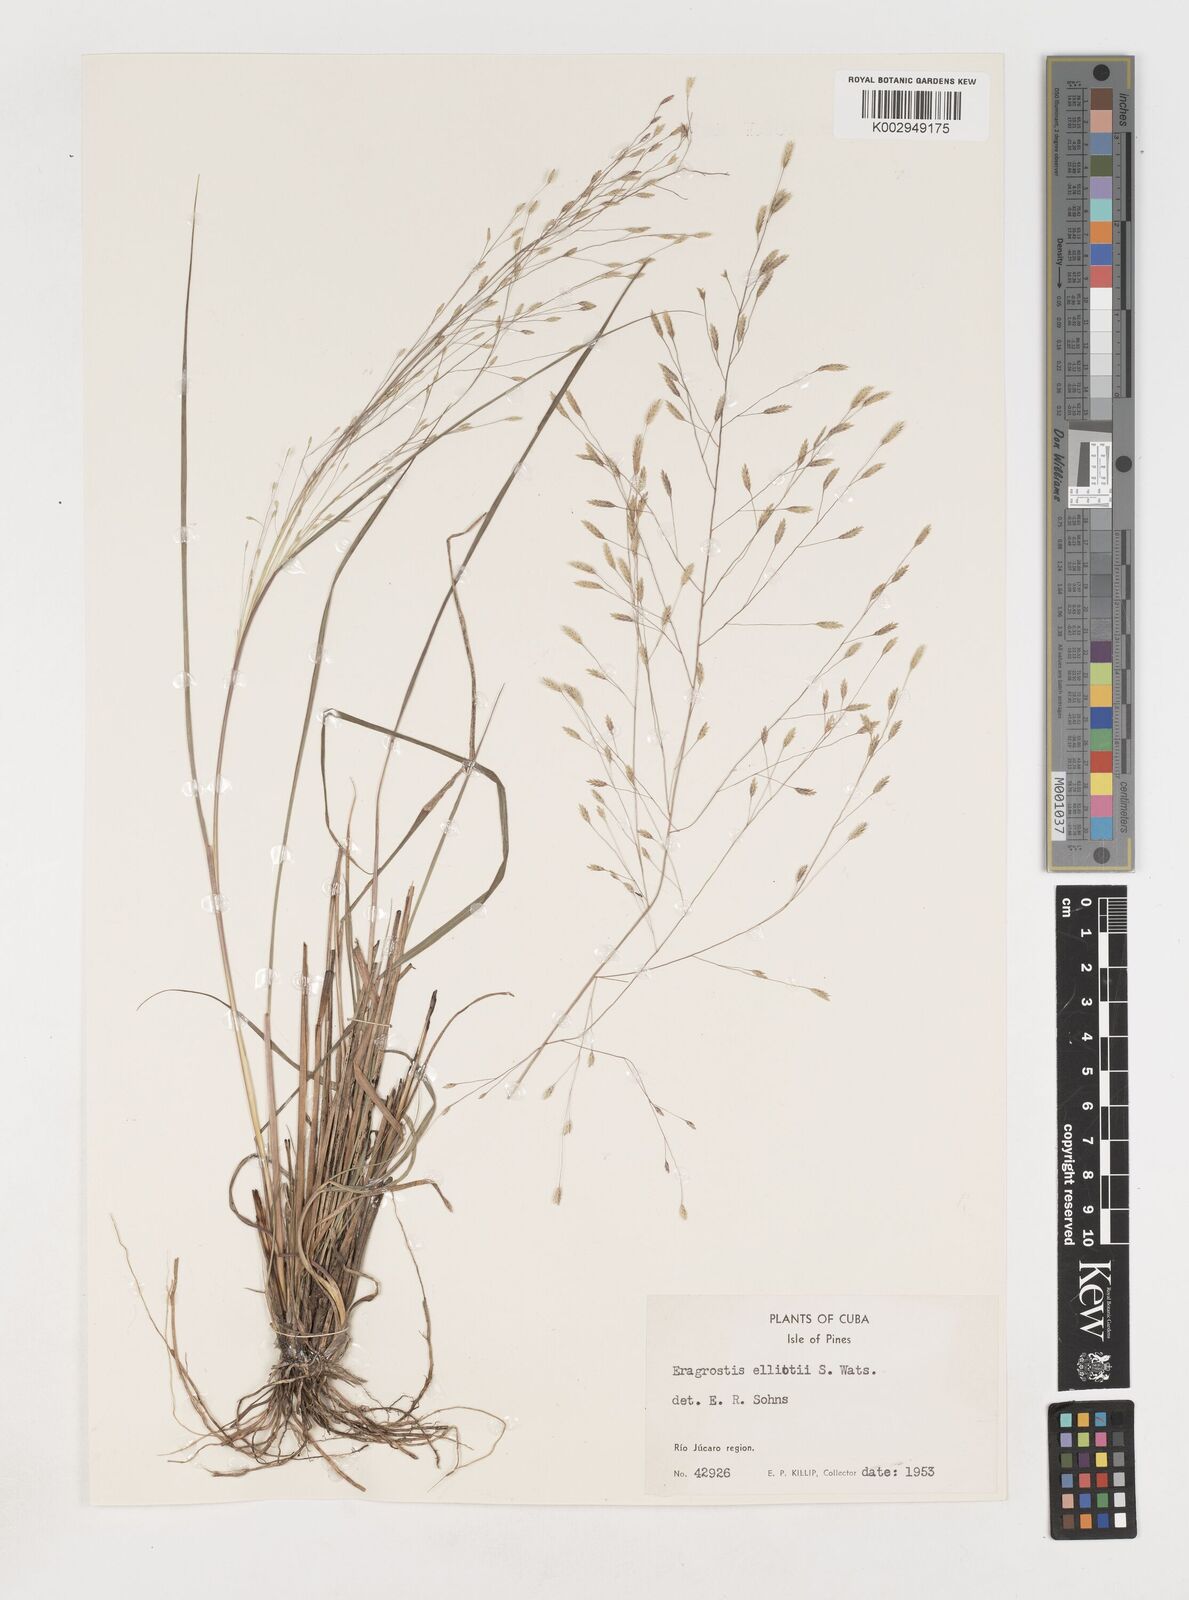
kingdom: Plantae
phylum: Tracheophyta
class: Liliopsida
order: Poales
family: Poaceae
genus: Eragrostis
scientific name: Eragrostis elliottii
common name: Elliott's love grass
